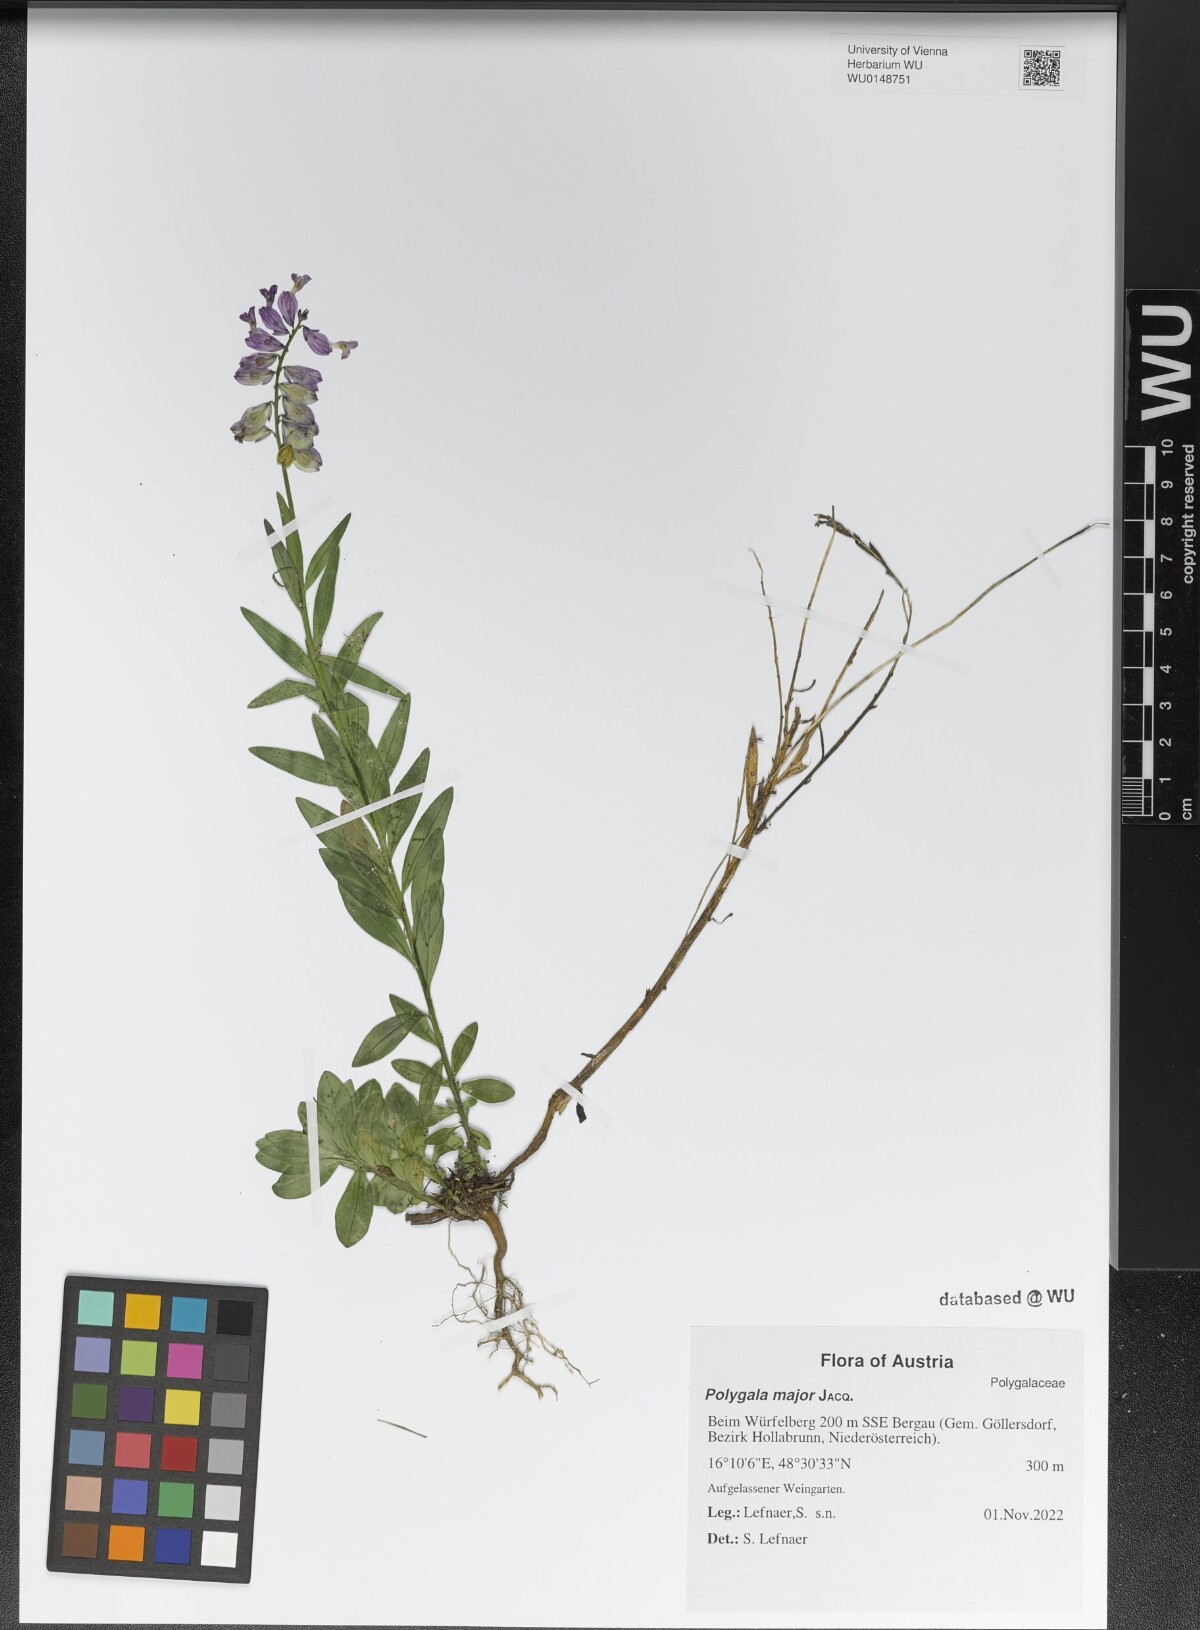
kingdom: Plantae
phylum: Tracheophyta
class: Magnoliopsida
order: Fabales
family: Polygalaceae
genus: Polygala
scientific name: Polygala major
